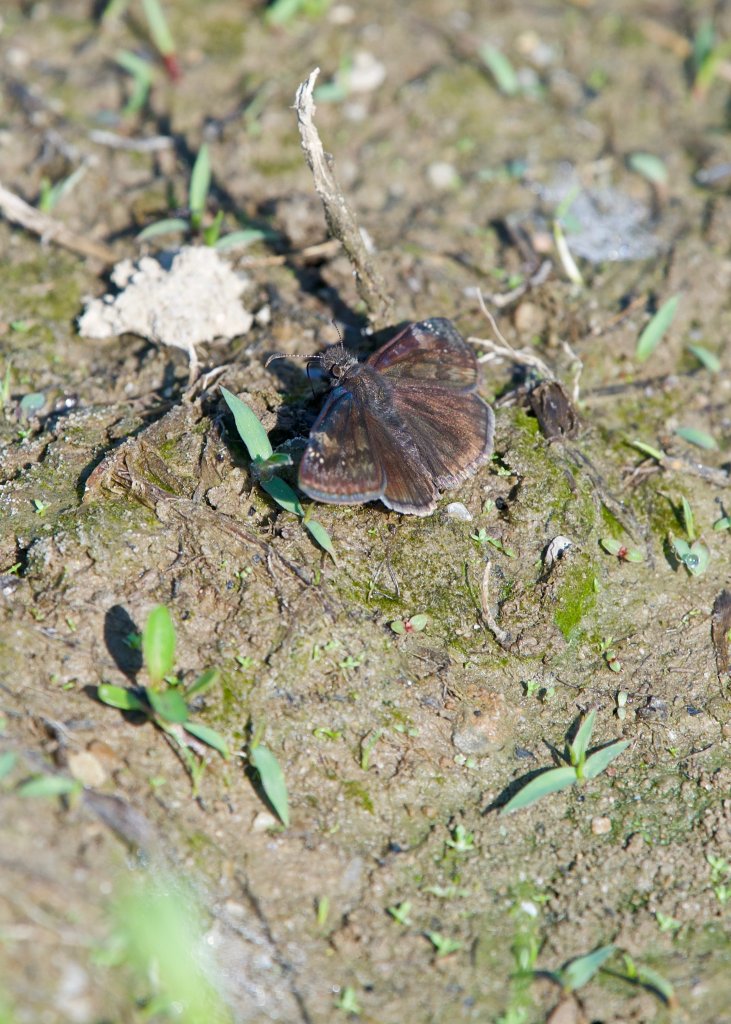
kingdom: Animalia
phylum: Arthropoda
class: Insecta
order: Lepidoptera
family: Hesperiidae
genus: Gesta
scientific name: Gesta
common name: Wild Indigo Duskywing
